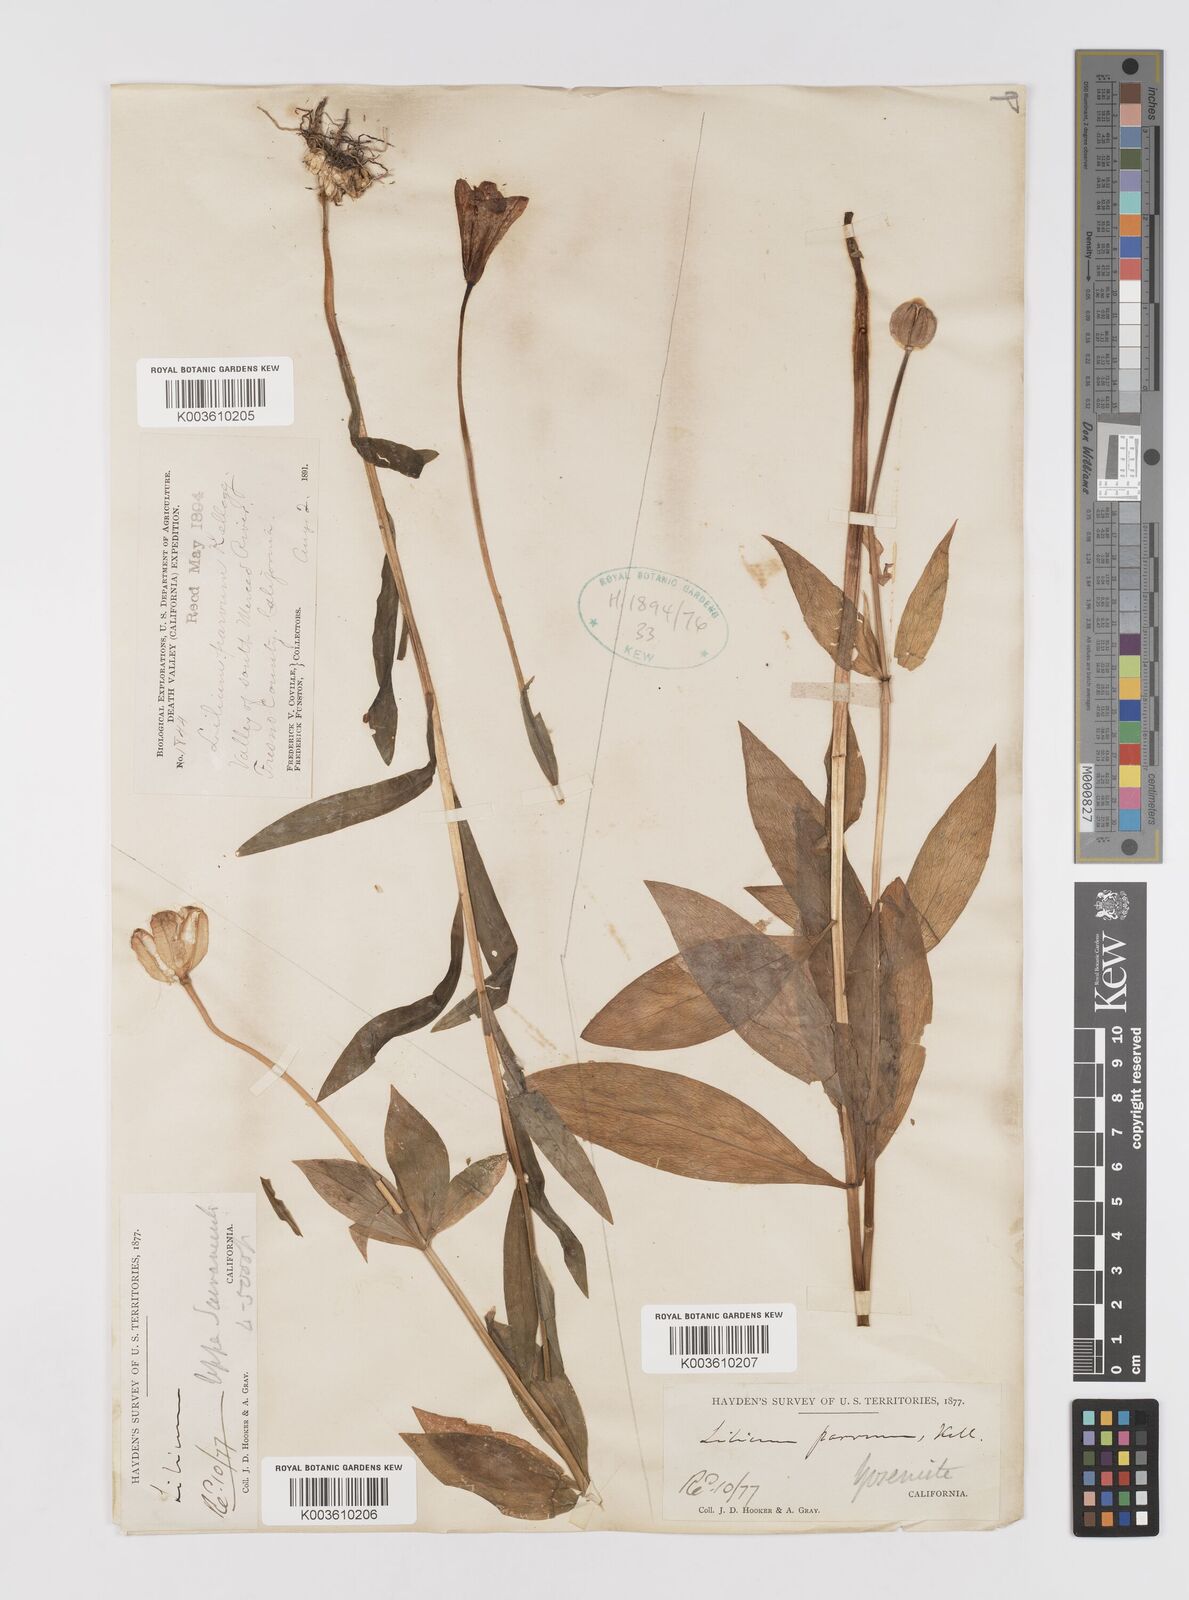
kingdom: Plantae
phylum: Tracheophyta
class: Liliopsida
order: Liliales
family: Liliaceae
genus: Lilium
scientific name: Lilium parvum
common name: Alpine lily
